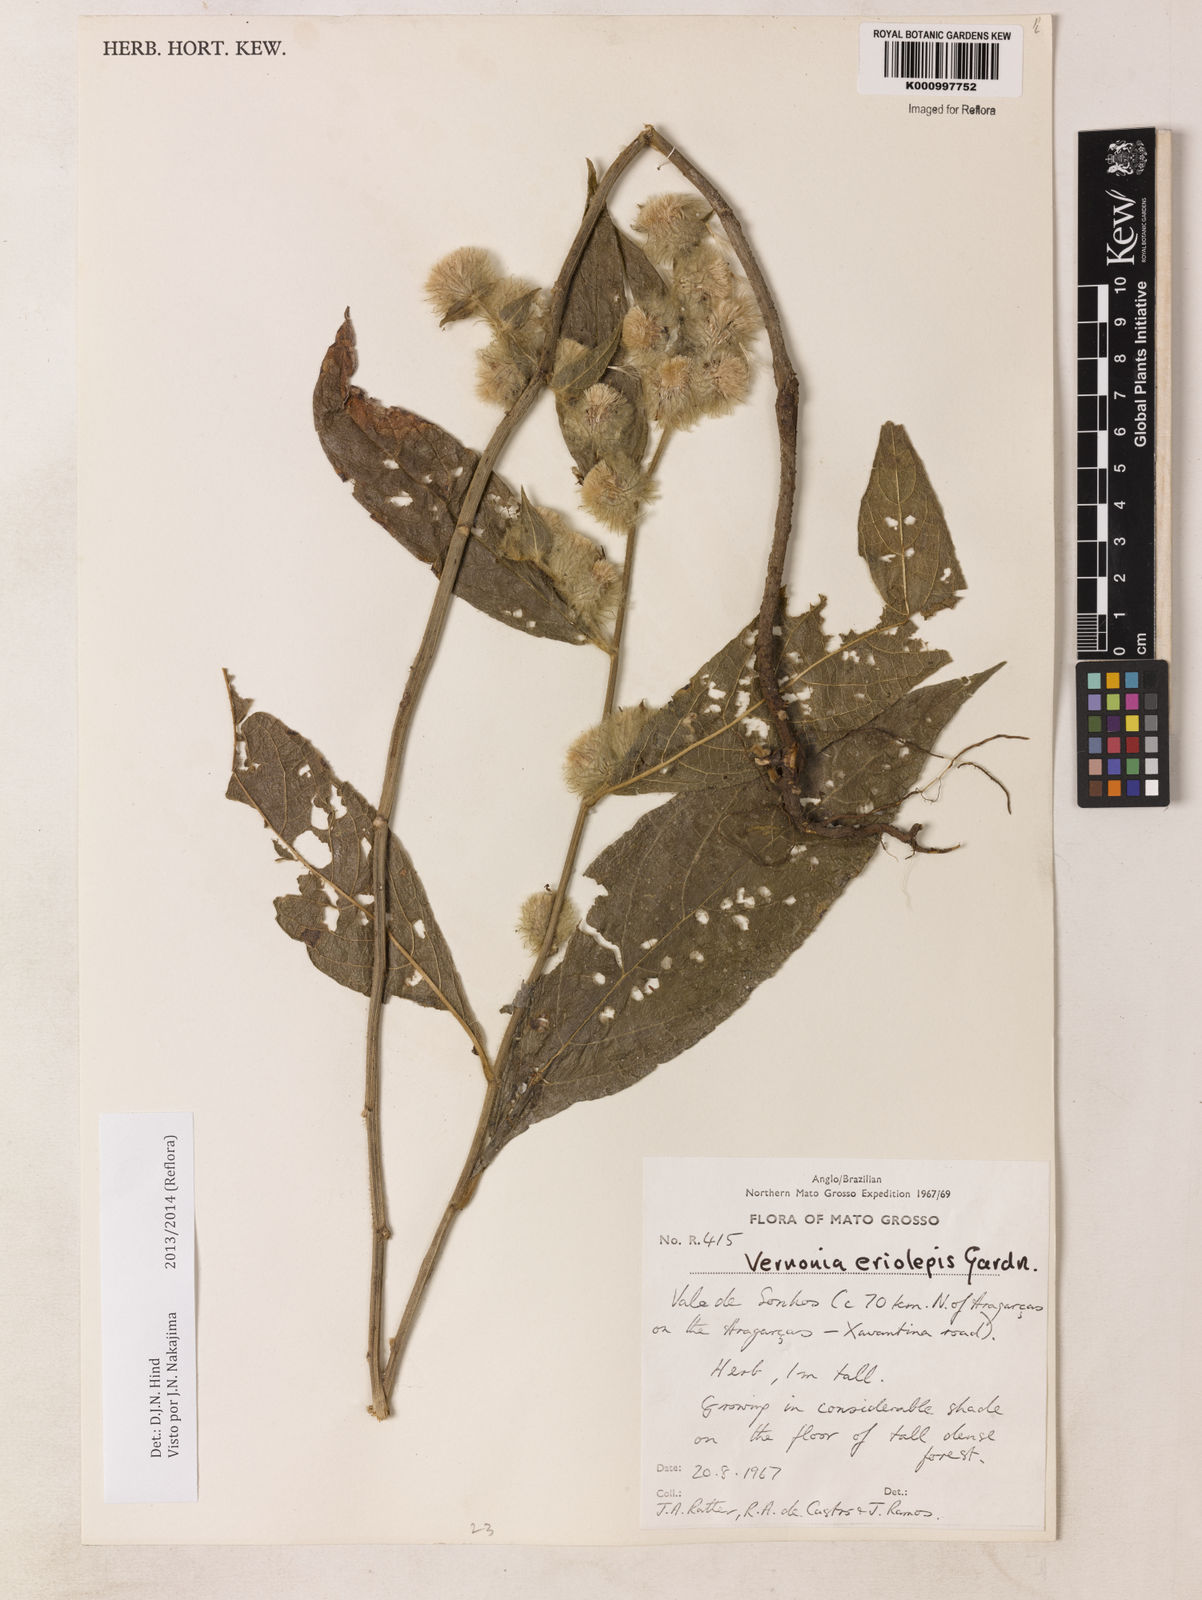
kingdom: Plantae
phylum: Tracheophyta
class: Magnoliopsida
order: Asterales
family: Asteraceae
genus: Lepidaploa
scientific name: Lepidaploa eriolepis
